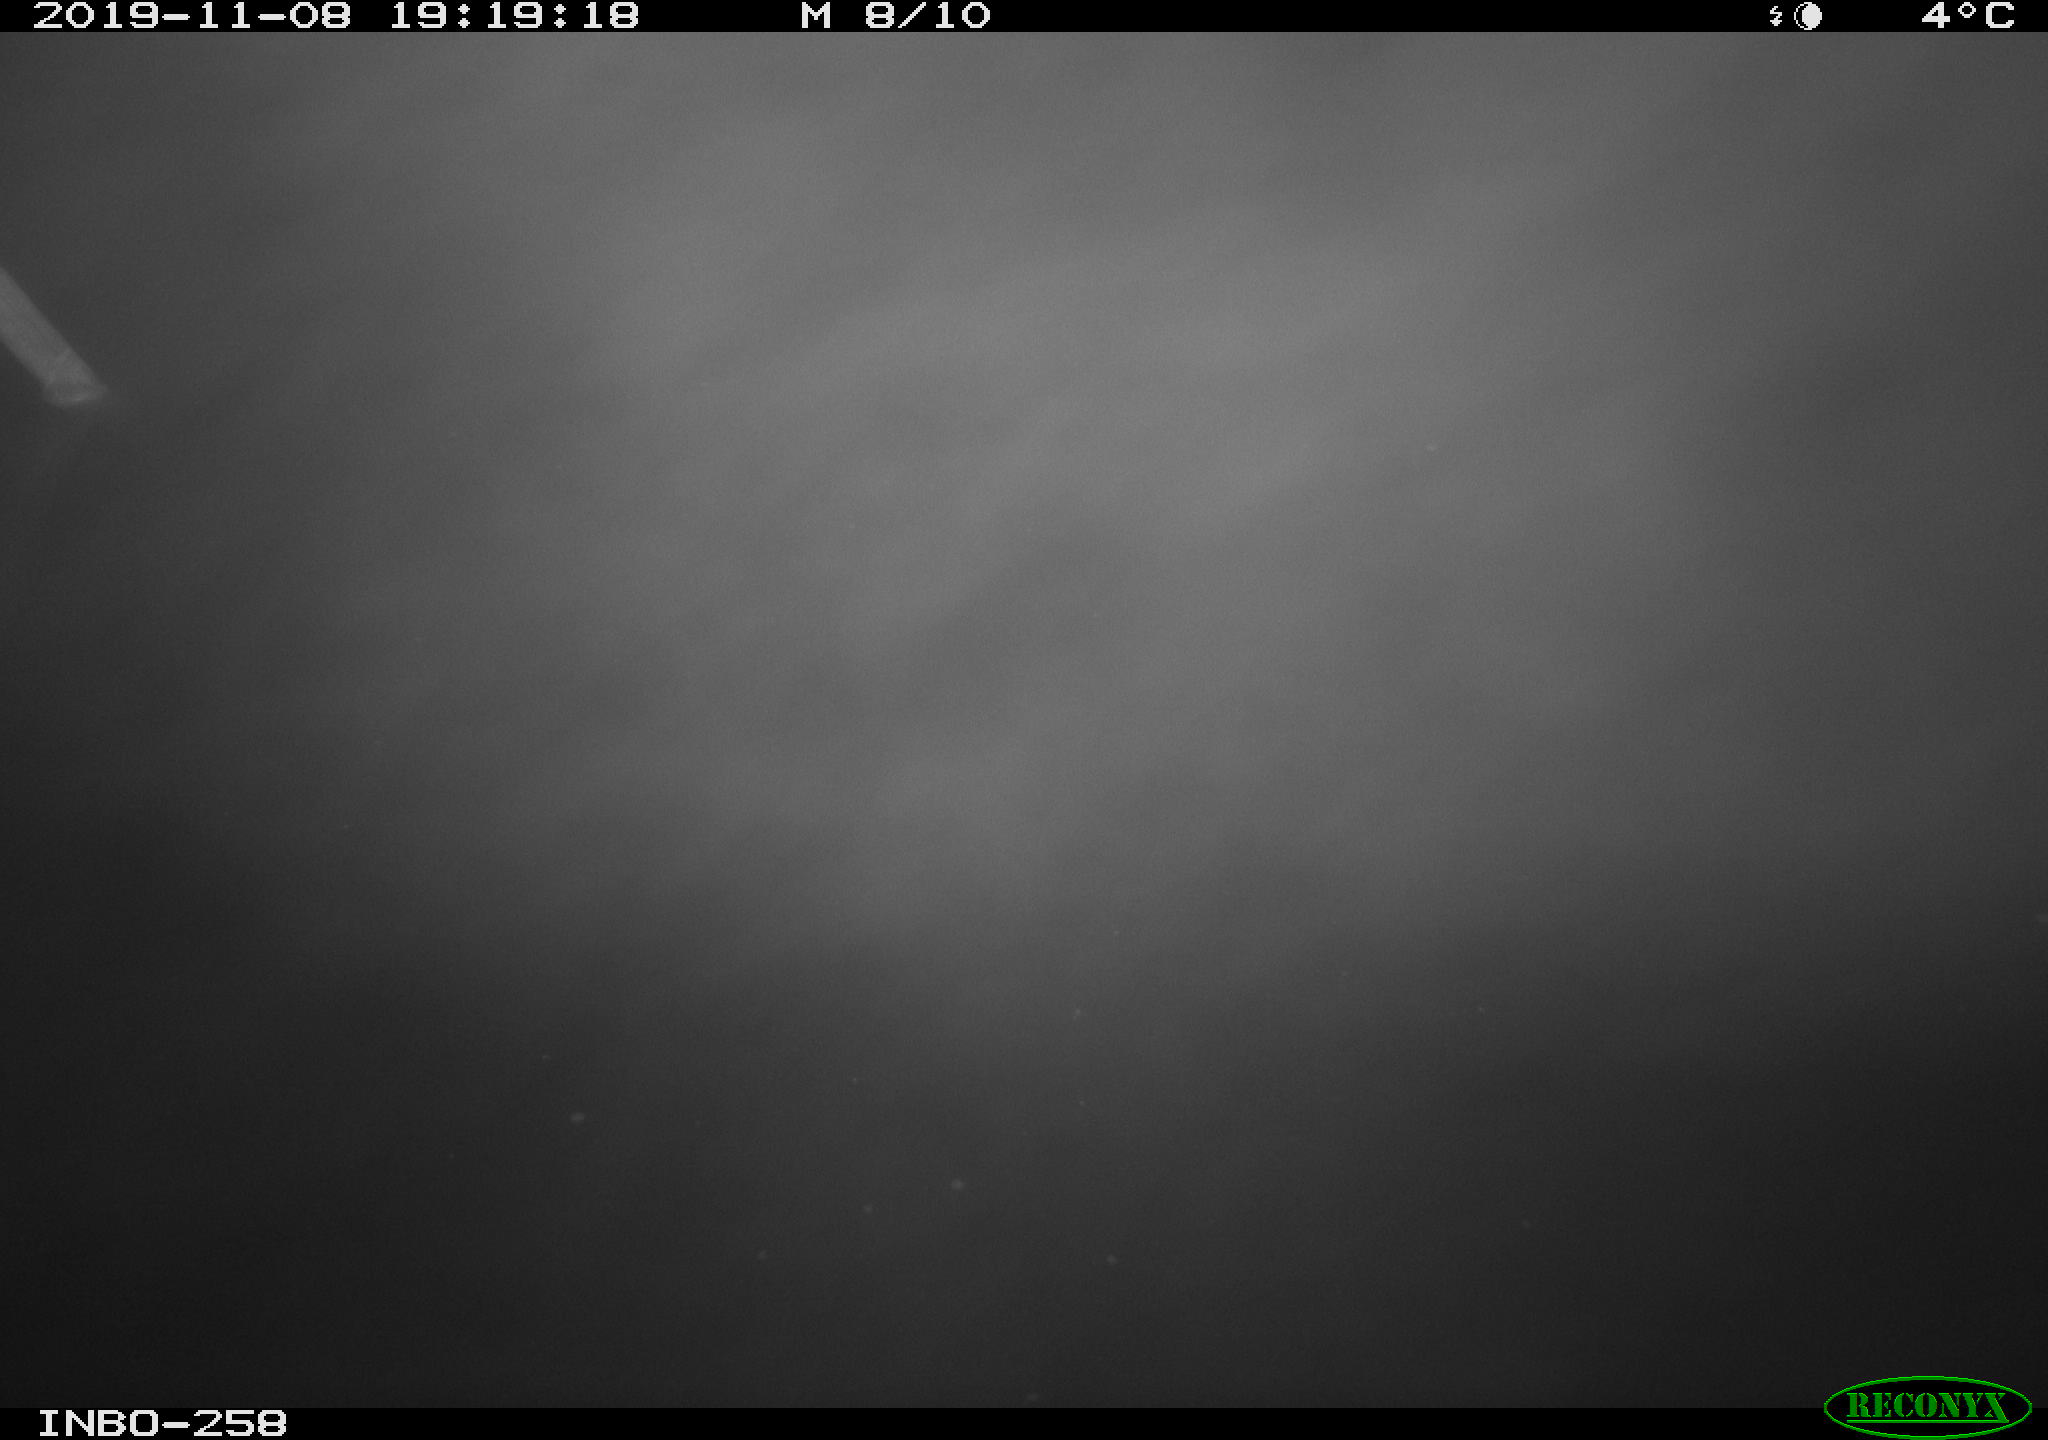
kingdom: Animalia
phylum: Chordata
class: Aves
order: Anseriformes
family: Anatidae
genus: Anas
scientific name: Anas platyrhynchos
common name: Mallard
